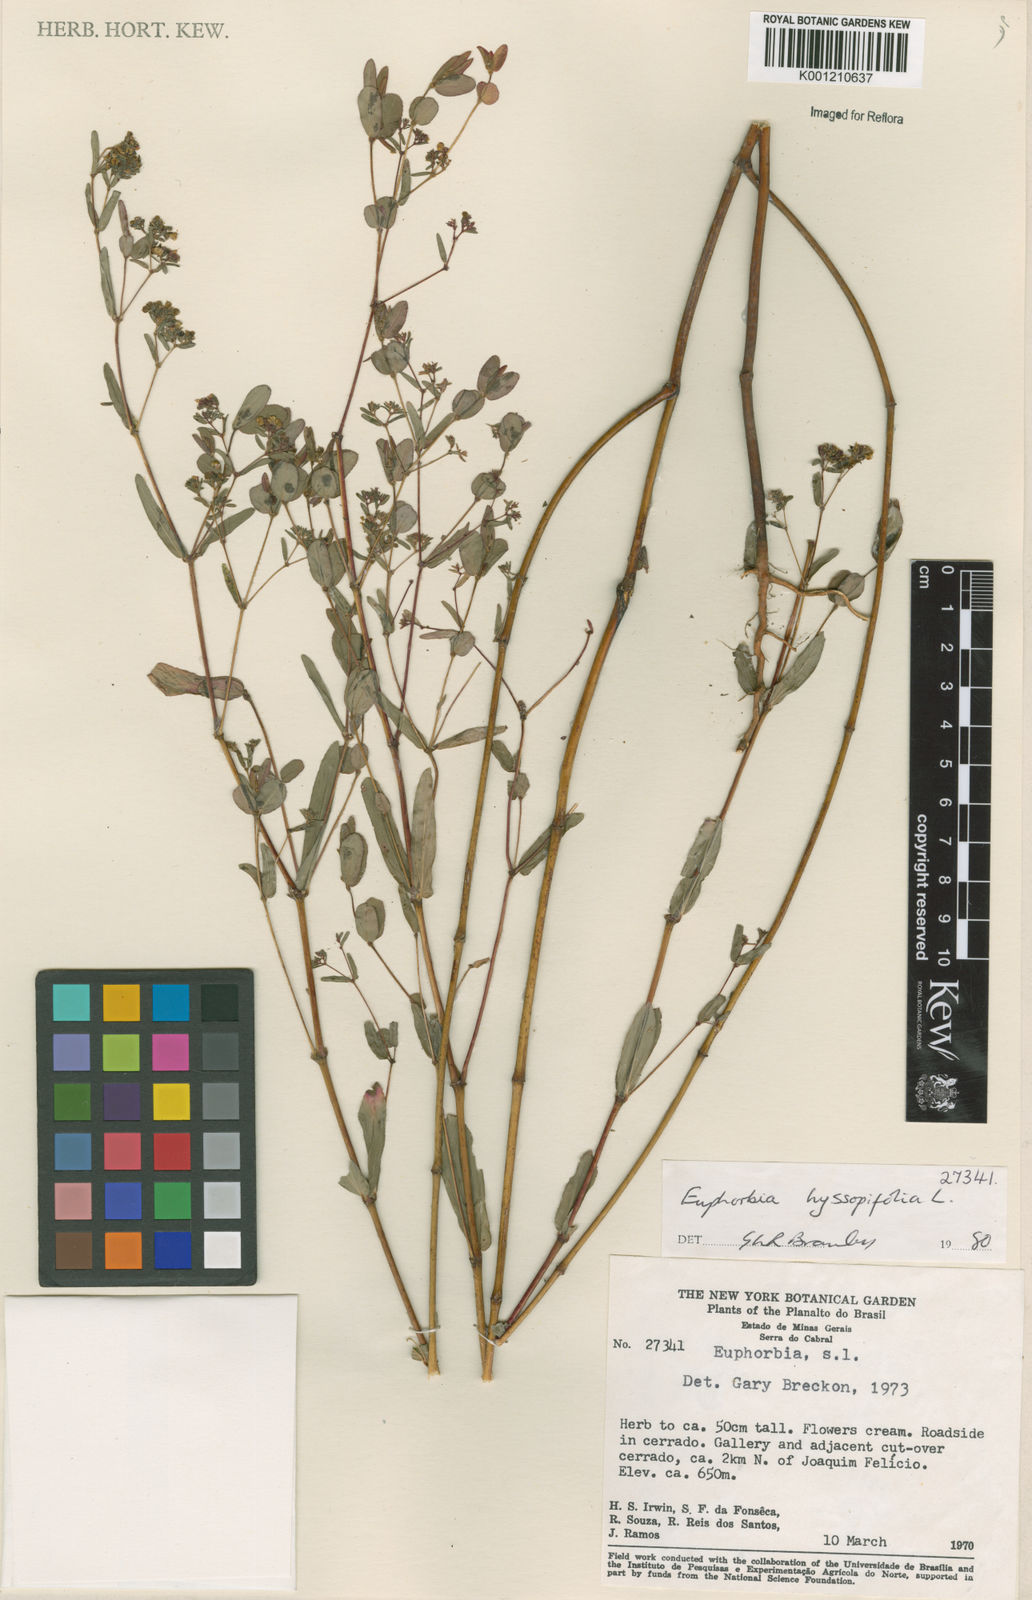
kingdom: Plantae
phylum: Tracheophyta
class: Magnoliopsida
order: Malpighiales
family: Euphorbiaceae
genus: Euphorbia
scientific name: Euphorbia hyssopifolia
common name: Hyssopleaf sandmat
